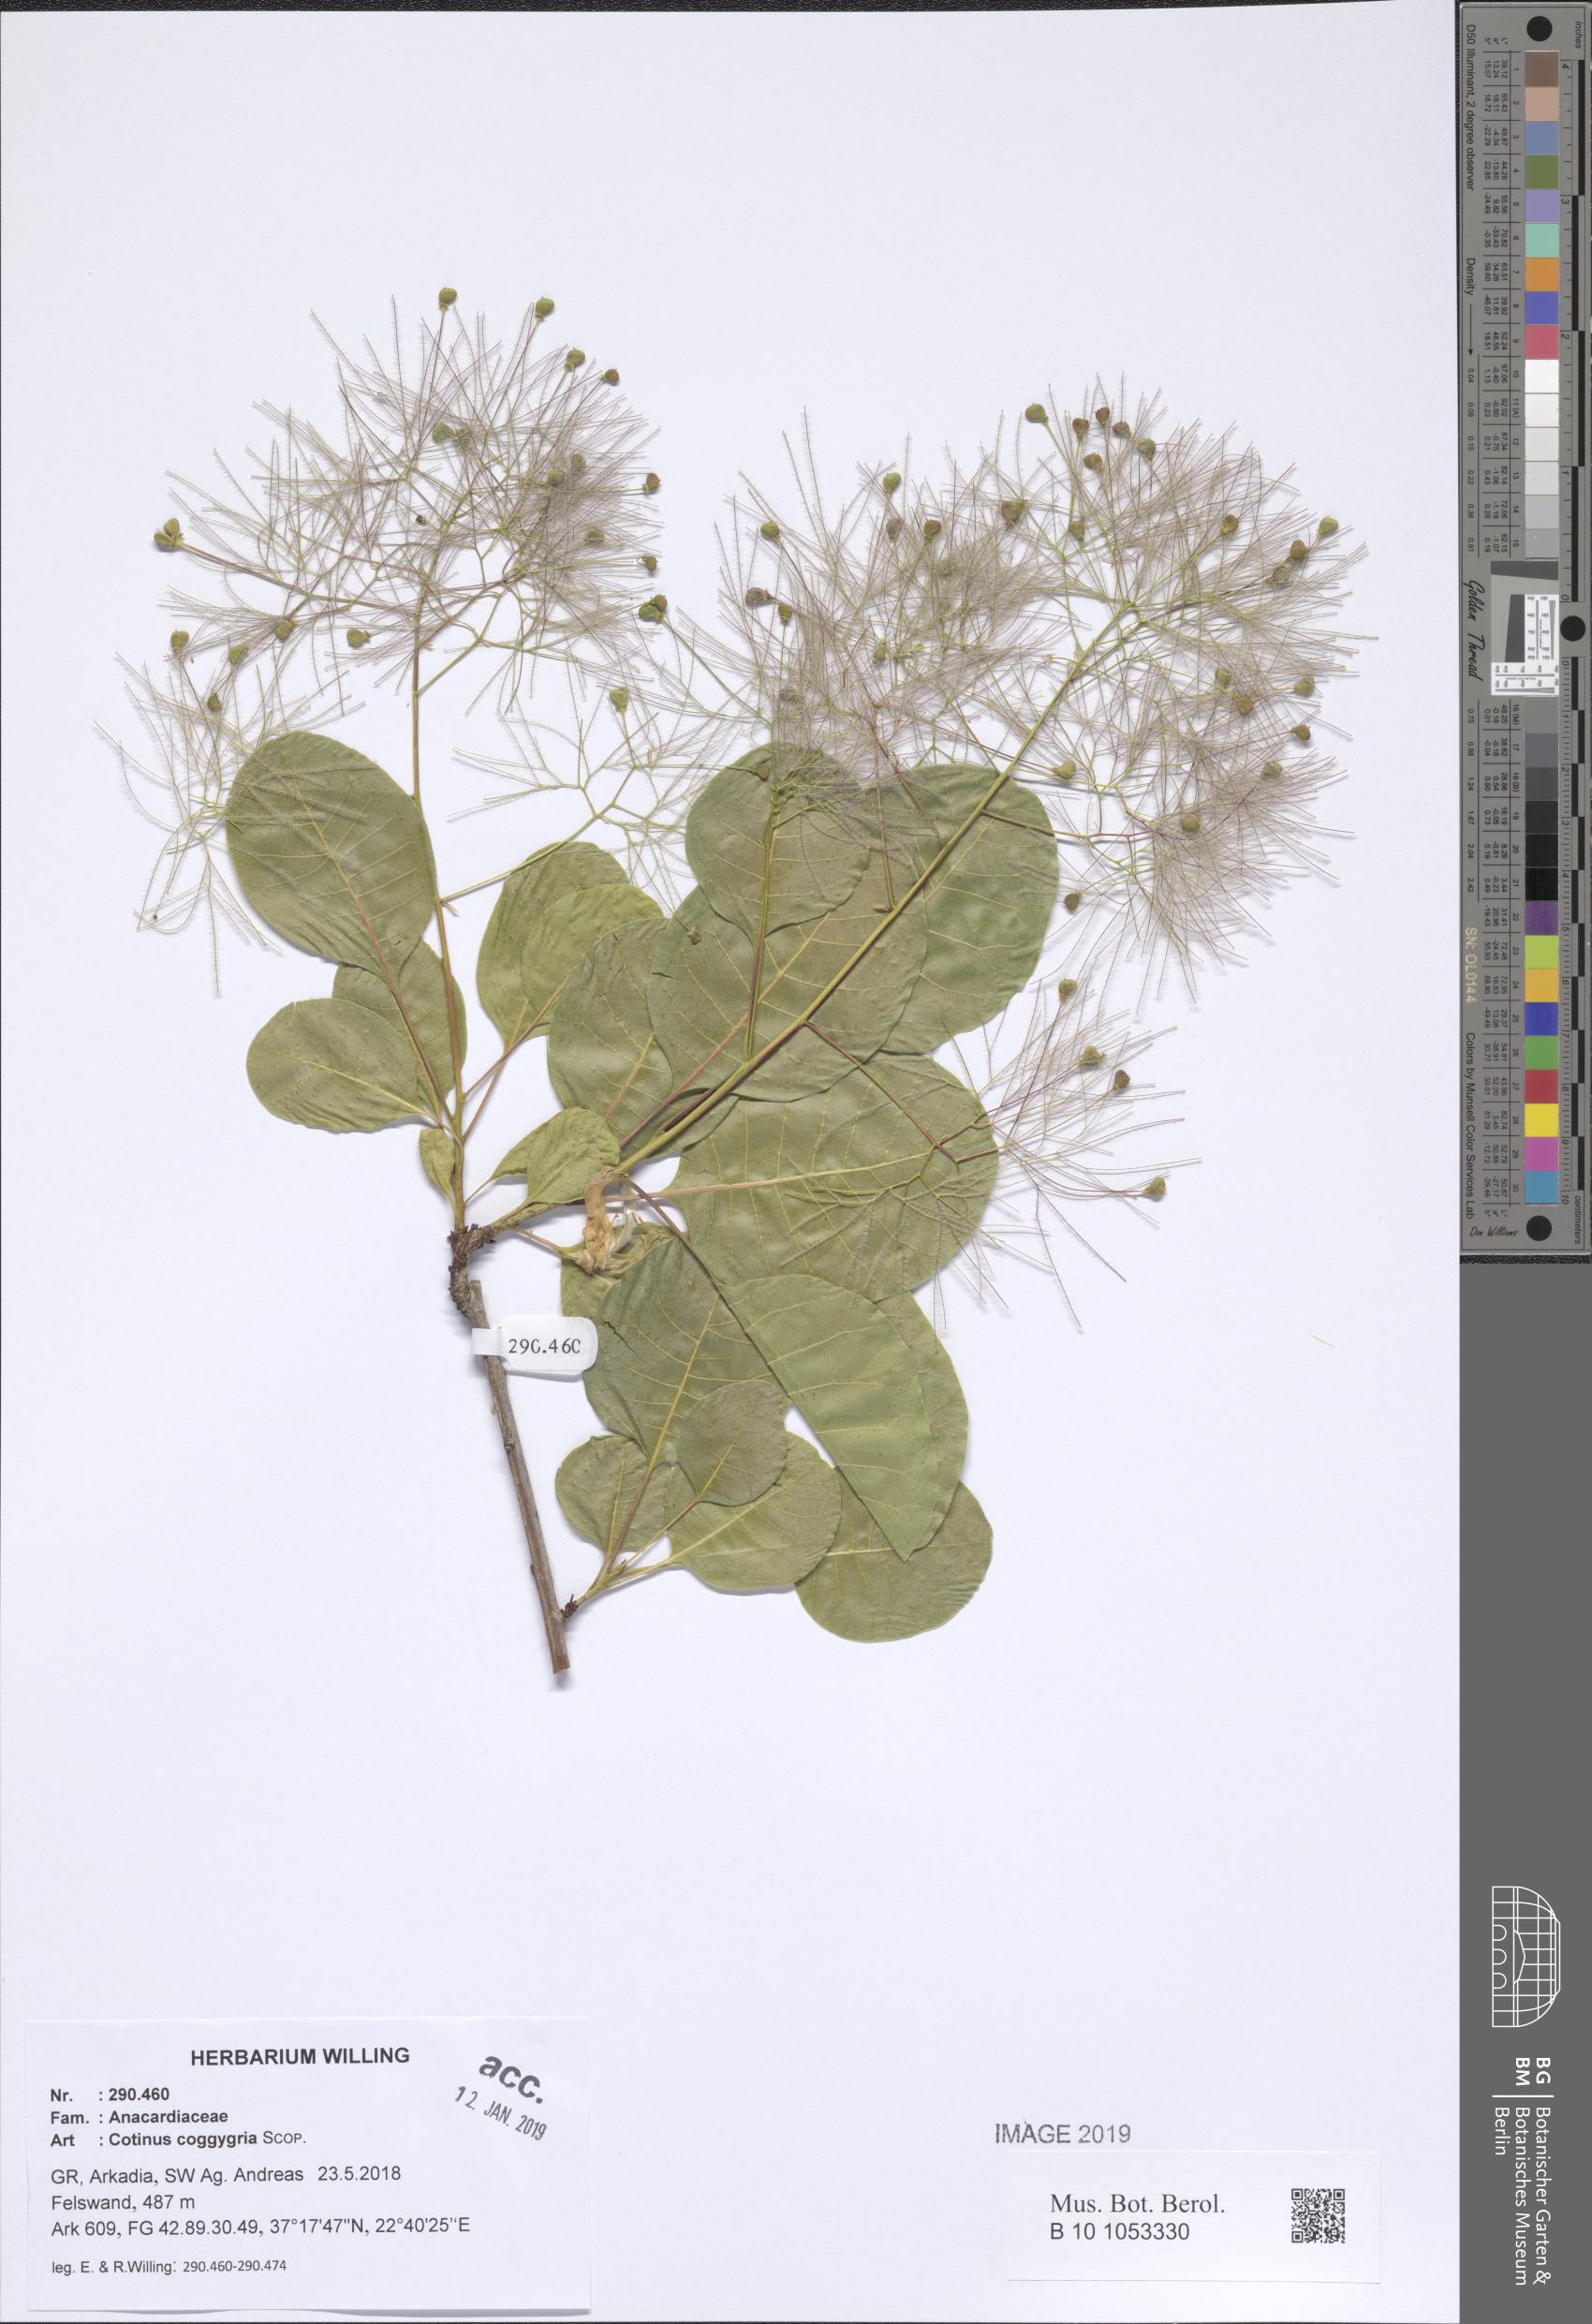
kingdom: Plantae
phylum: Tracheophyta
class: Magnoliopsida
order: Sapindales
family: Anacardiaceae
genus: Cotinus
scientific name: Cotinus coggygria
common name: Smoke-tree
